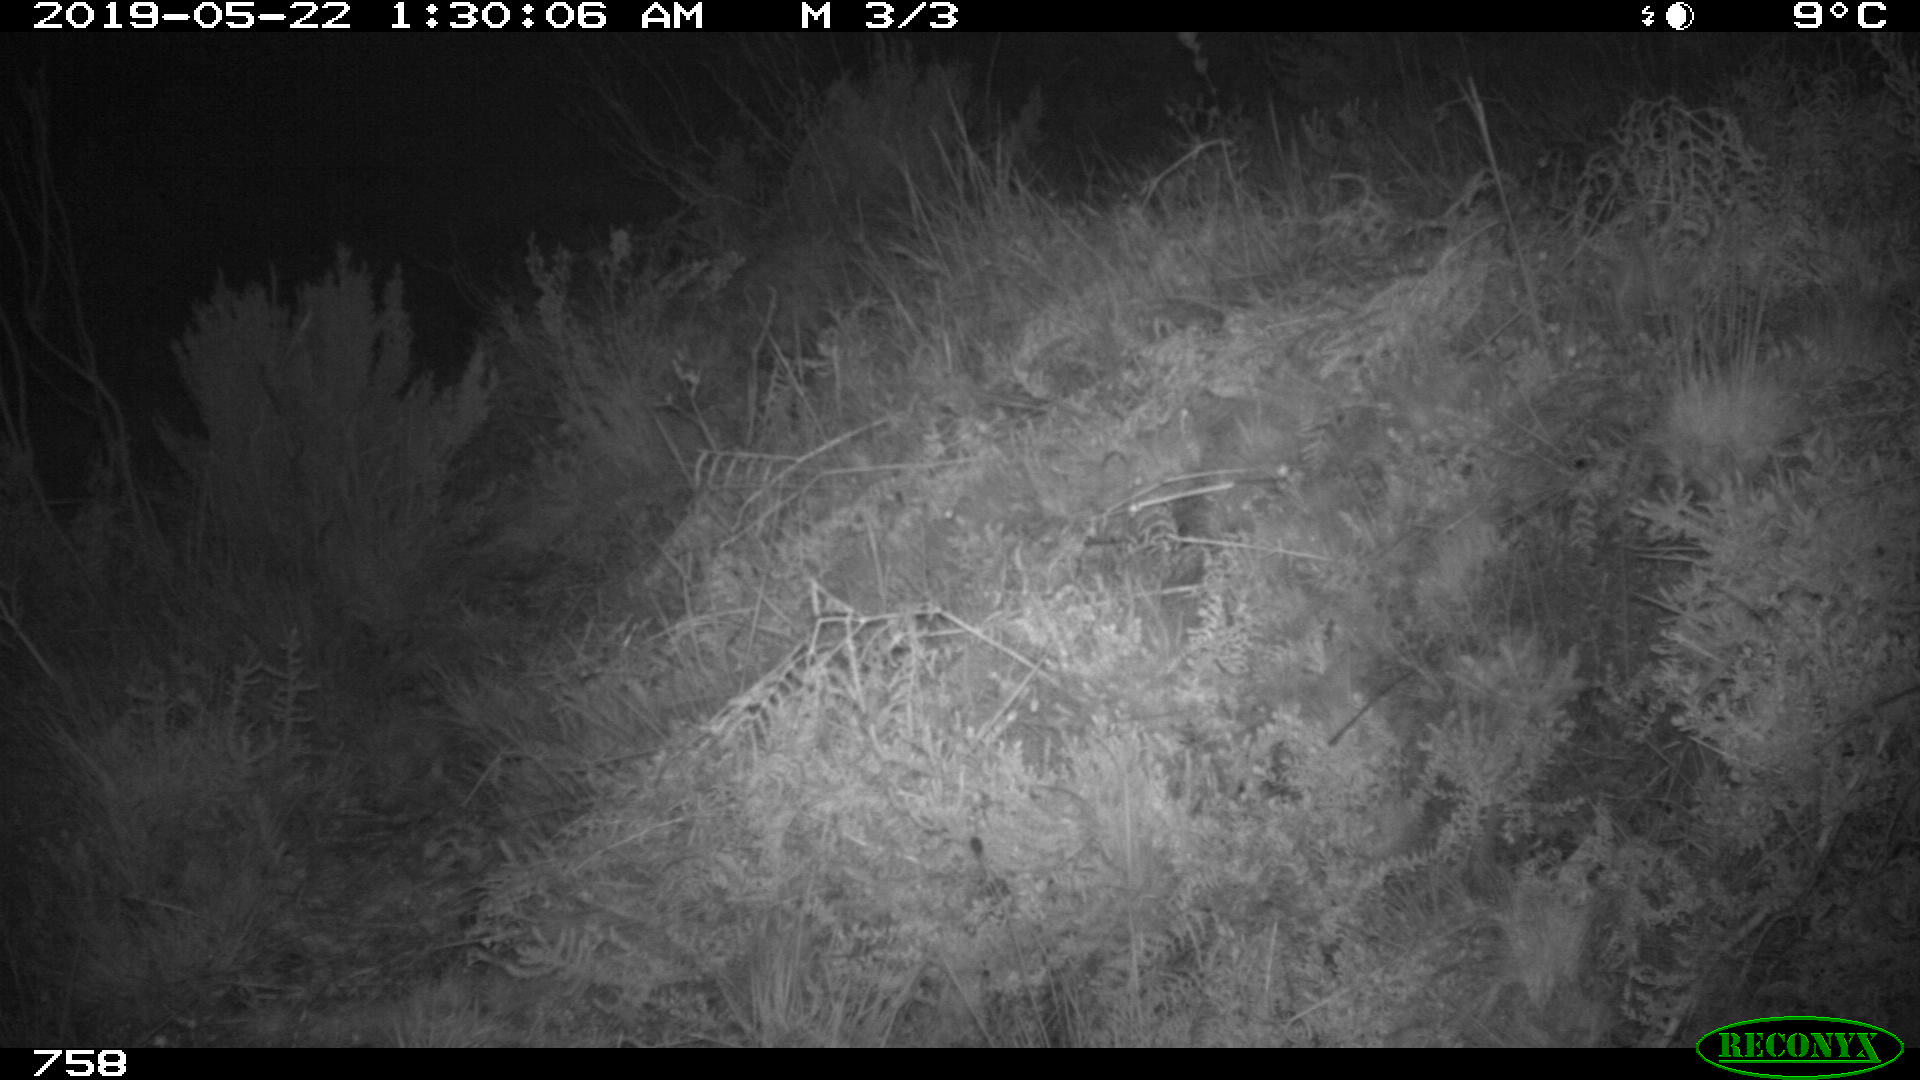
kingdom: Animalia
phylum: Chordata
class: Mammalia
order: Carnivora
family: Mustelidae
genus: Meles
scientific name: Meles meles
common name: Eurasian badger
